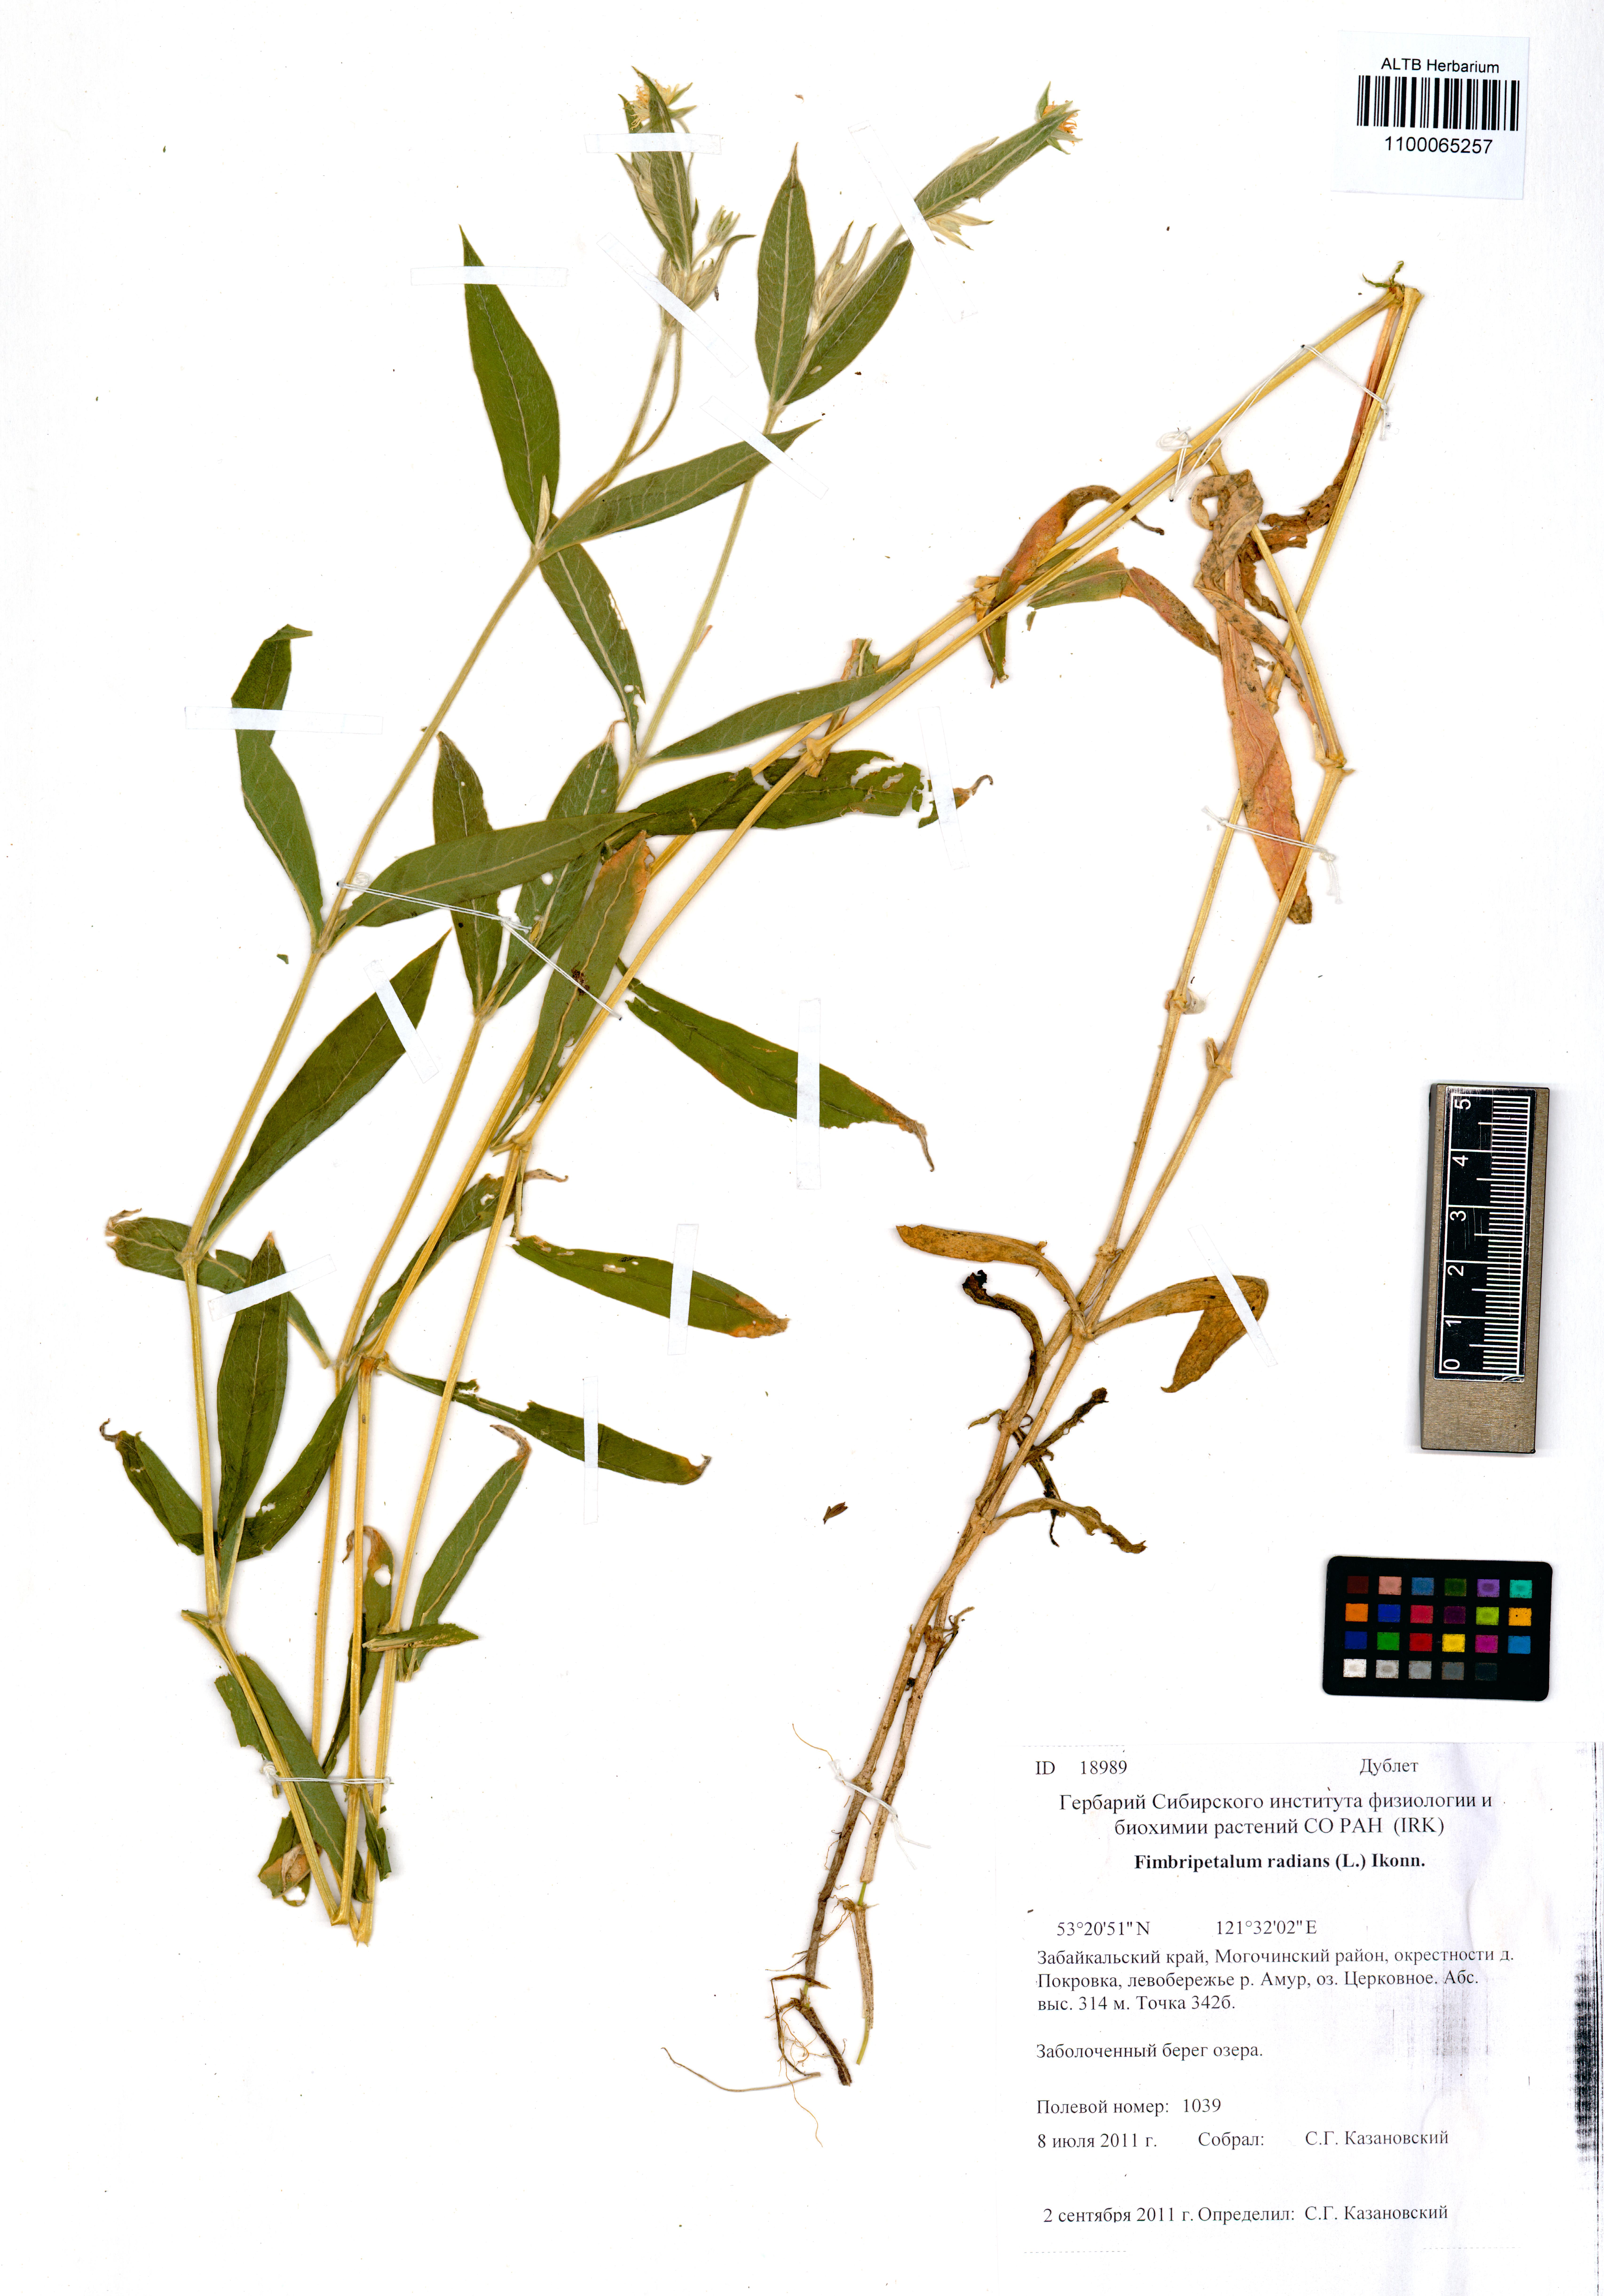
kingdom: Plantae
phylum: Tracheophyta
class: Magnoliopsida
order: Caryophyllales
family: Caryophyllaceae
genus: Stellaria
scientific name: Stellaria radians
